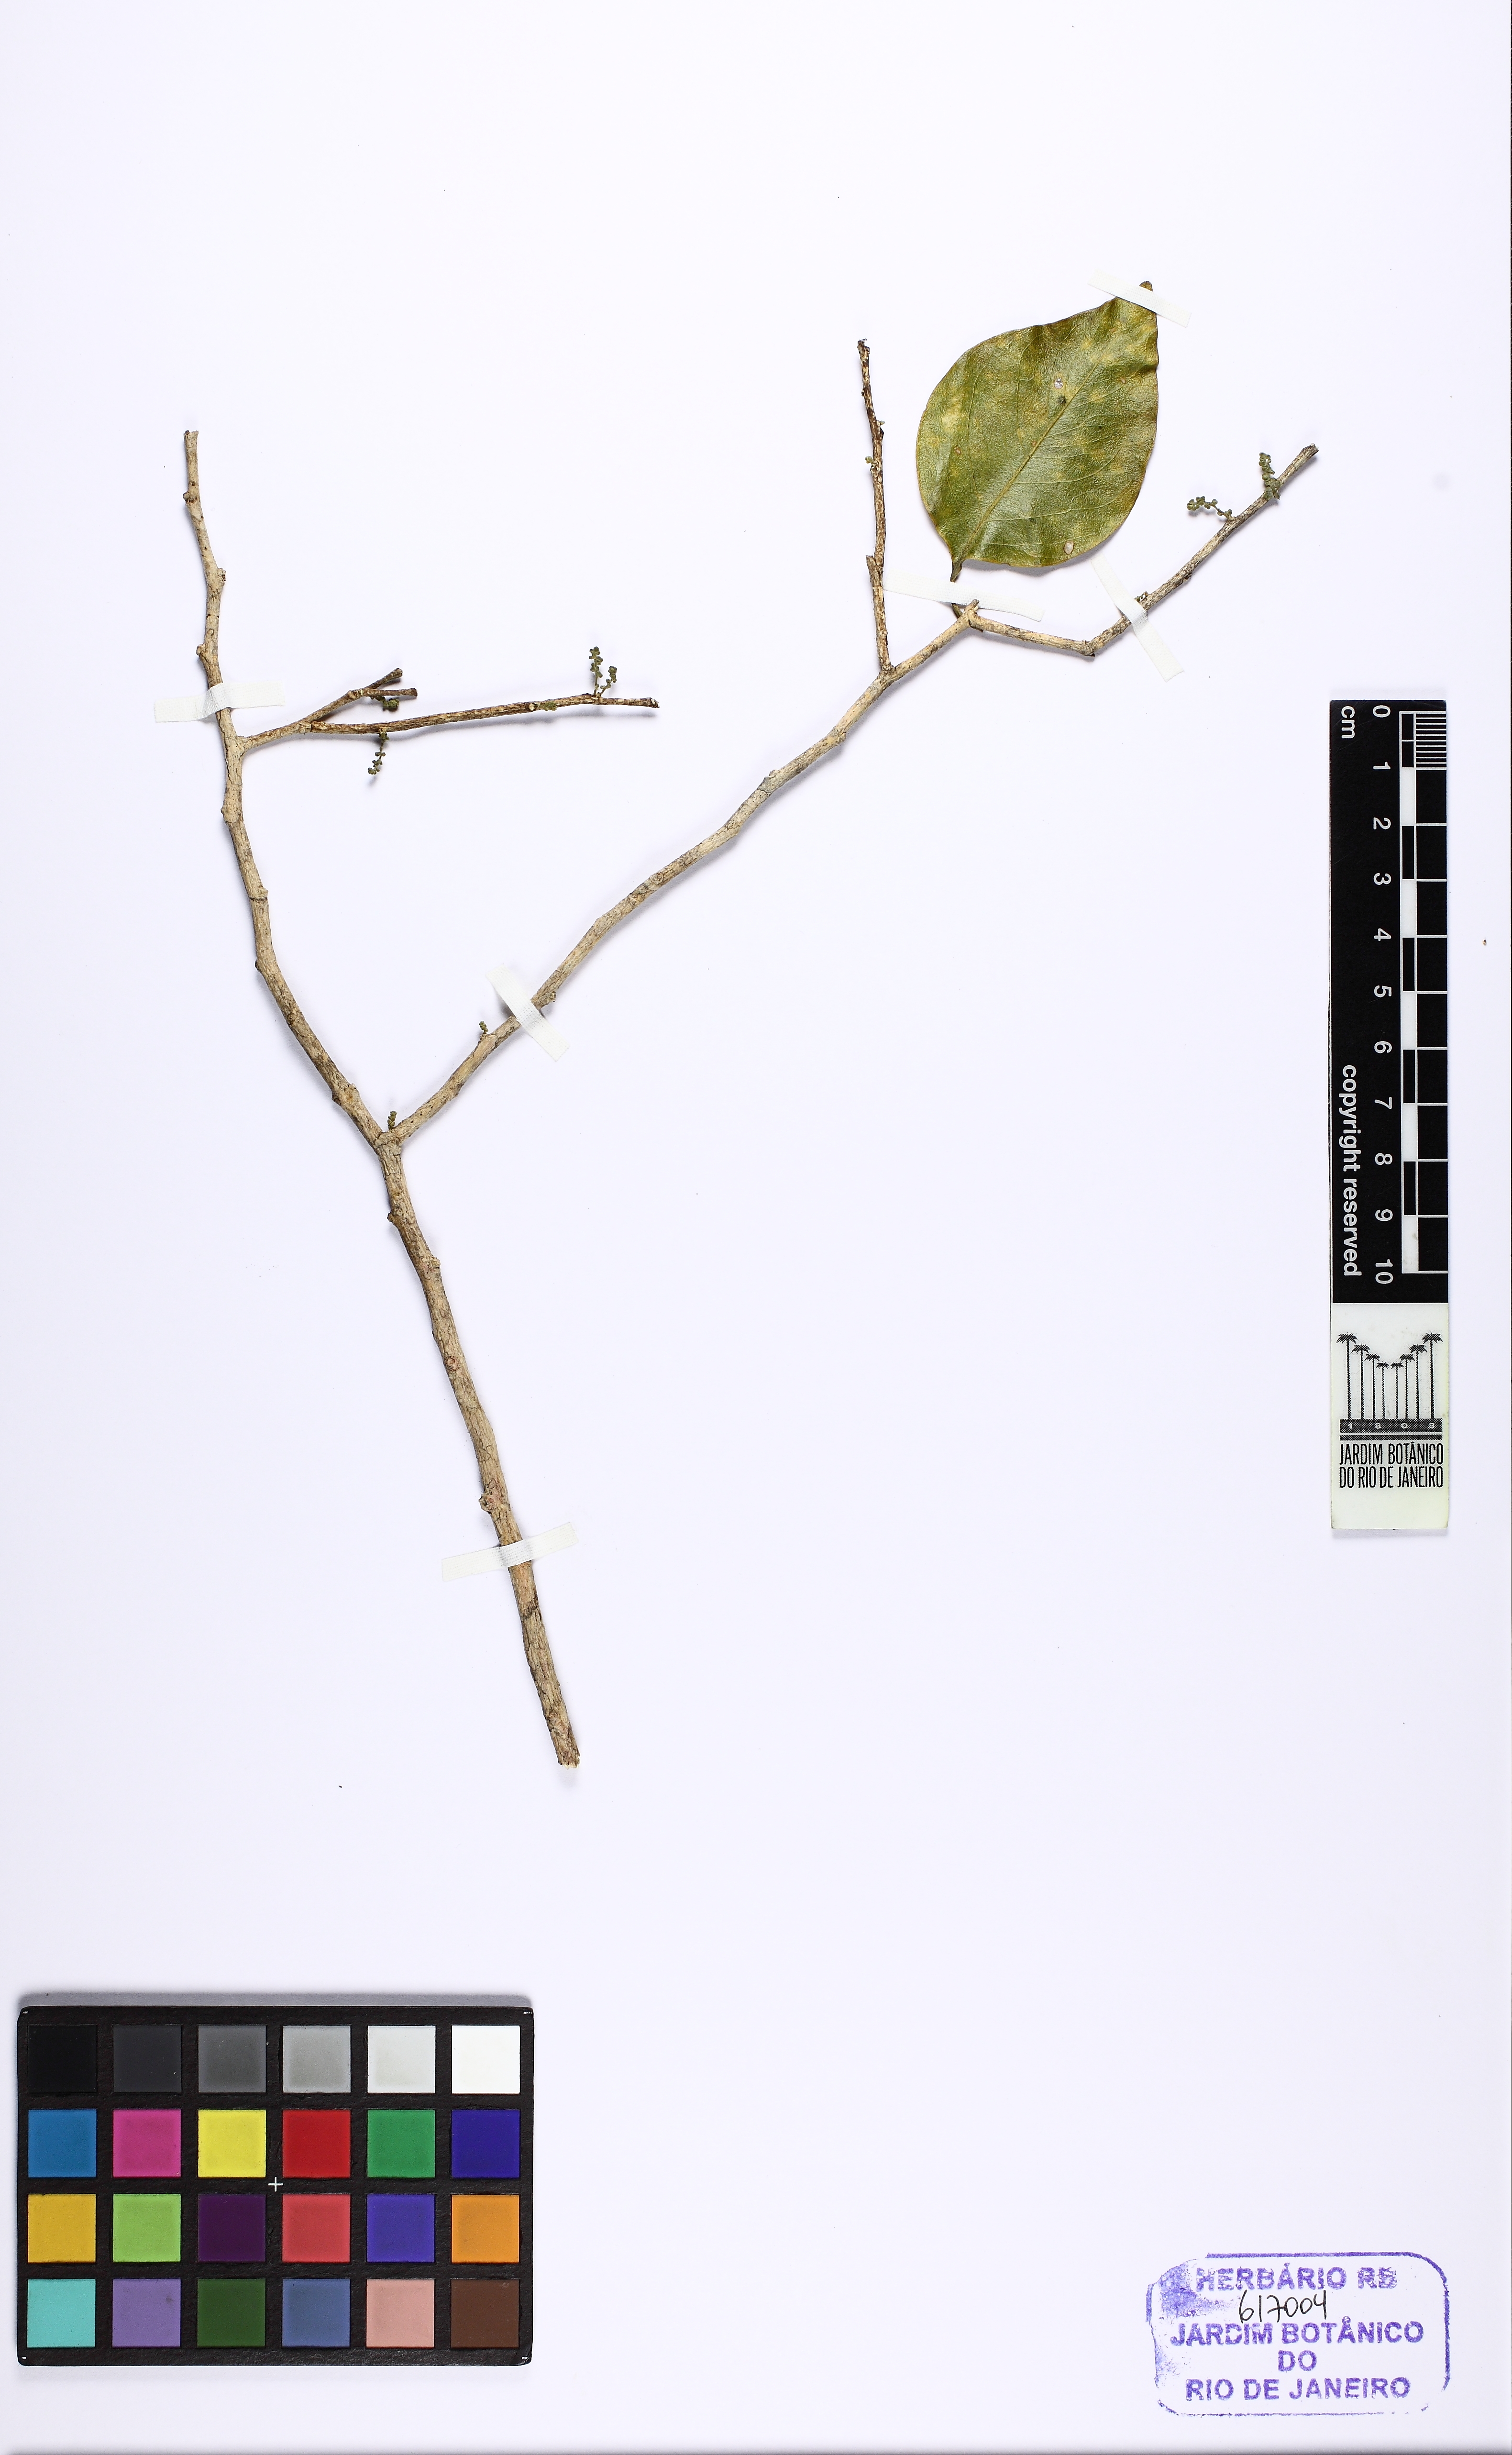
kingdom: Plantae
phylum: Tracheophyta
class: Magnoliopsida
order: Santalales
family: Opiliaceae
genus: Agonandra
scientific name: Agonandra brasiliensis
